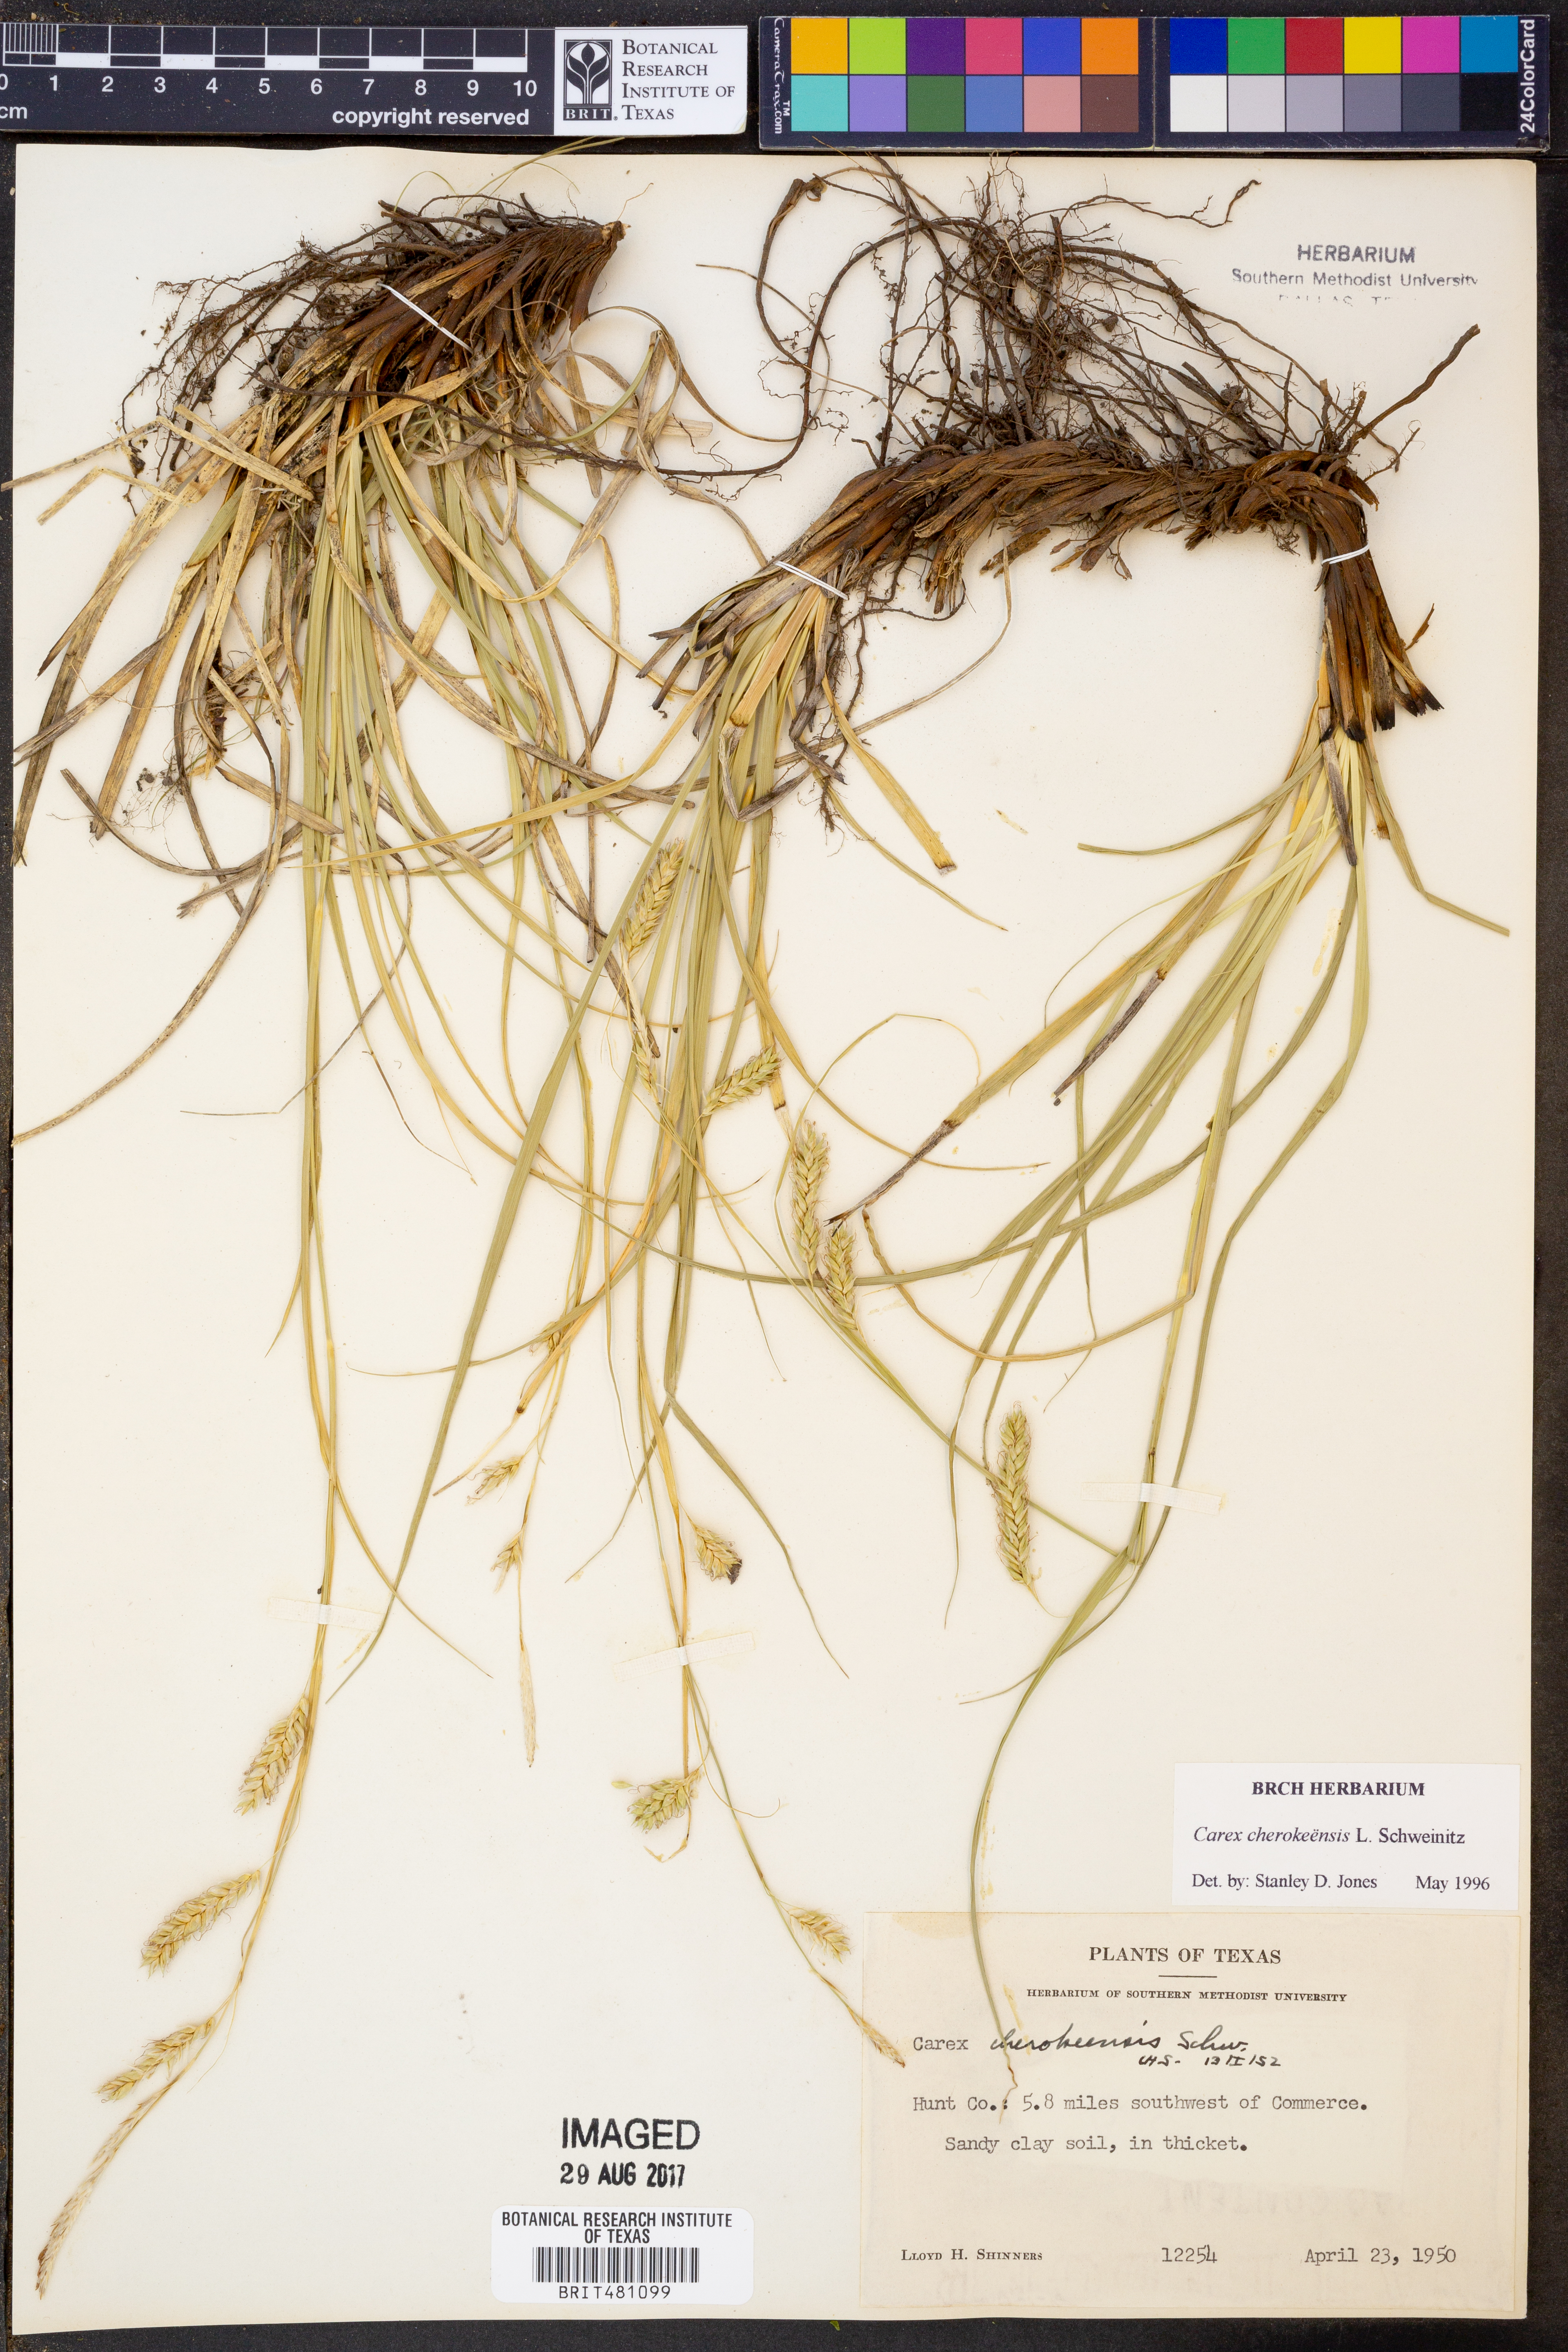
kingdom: Plantae
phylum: Tracheophyta
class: Liliopsida
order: Poales
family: Cyperaceae
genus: Carex
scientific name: Carex cherokeensis
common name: Cherokee sedge
